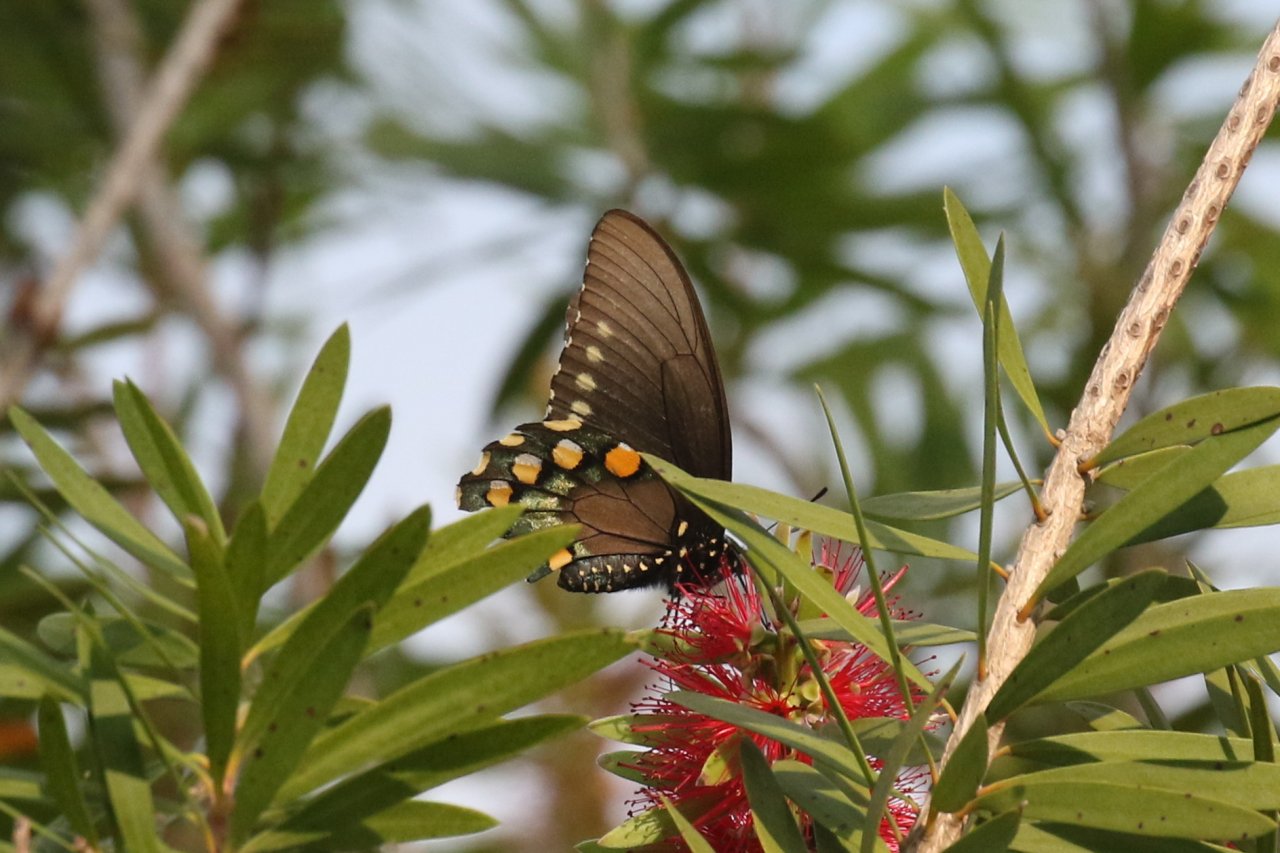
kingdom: Animalia
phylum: Arthropoda
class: Insecta
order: Lepidoptera
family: Papilionidae
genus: Battus
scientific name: Battus philenor
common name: Pipevine Swallowtail
